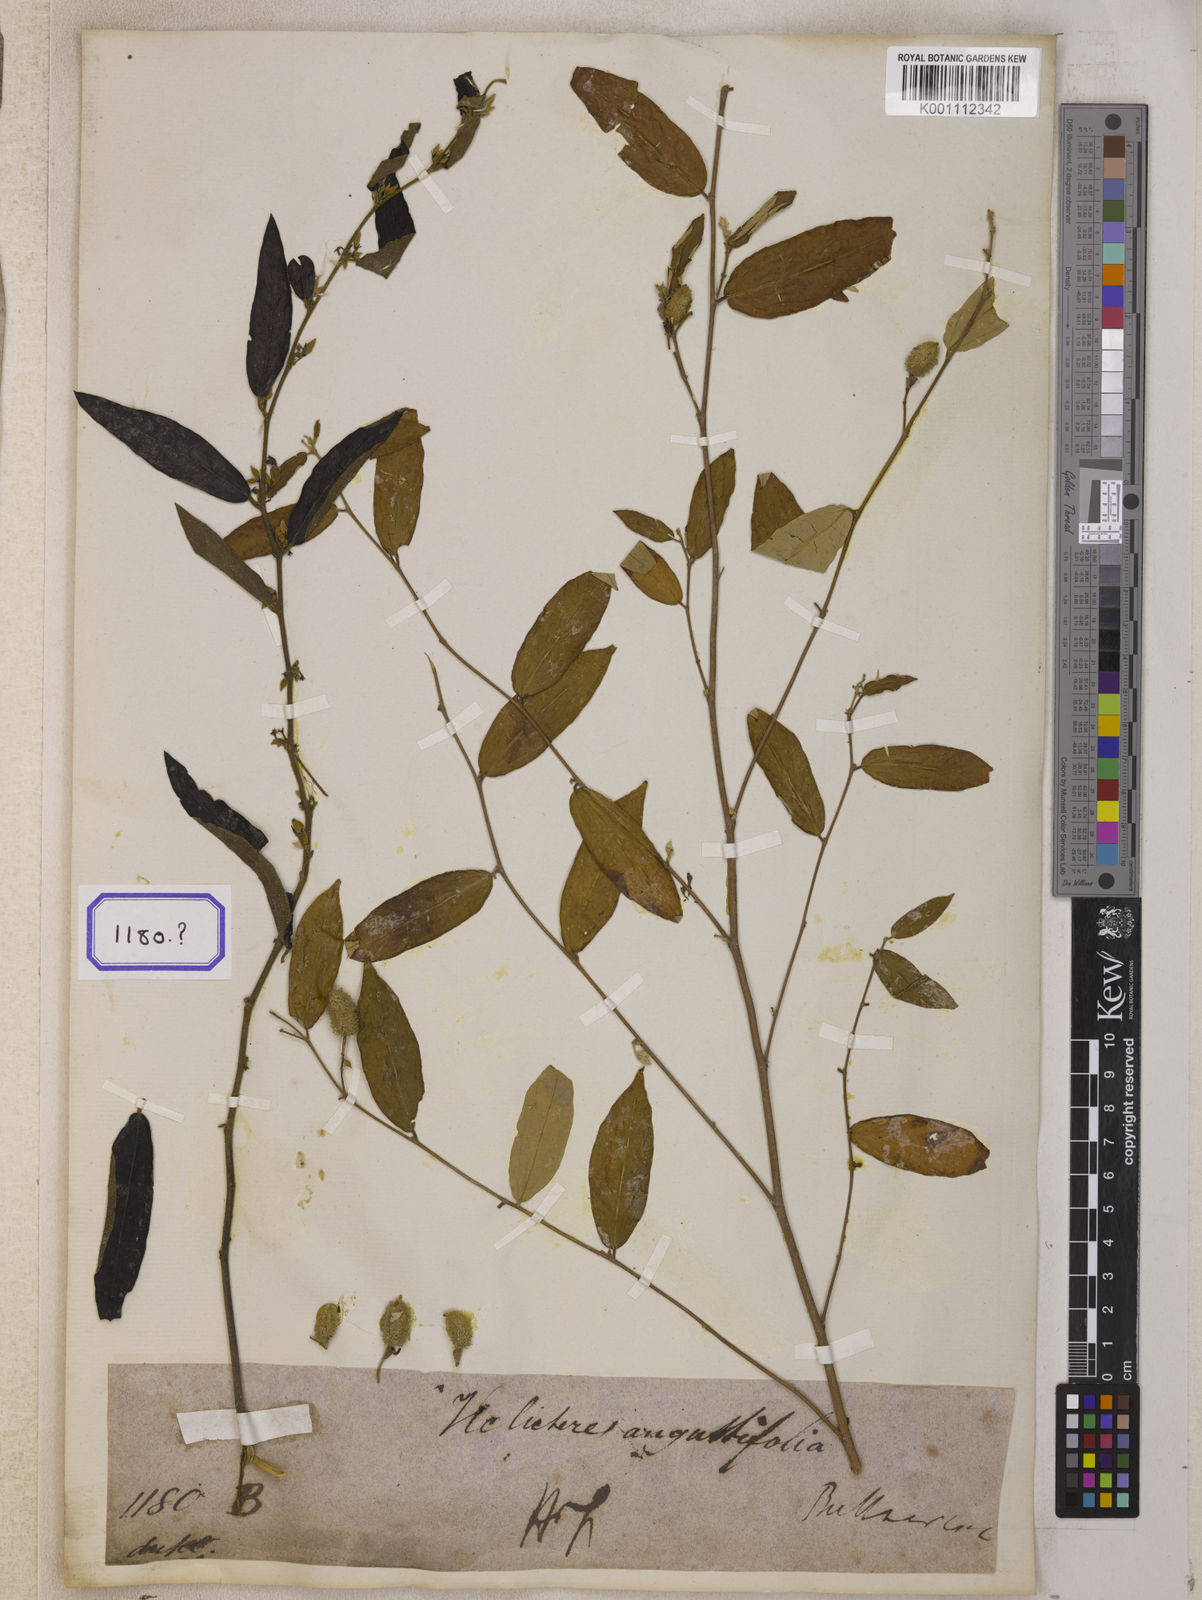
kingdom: Plantae
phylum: Tracheophyta
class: Magnoliopsida
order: Malvales
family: Malvaceae
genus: Helicteres
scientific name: Helicteres angustifolia
